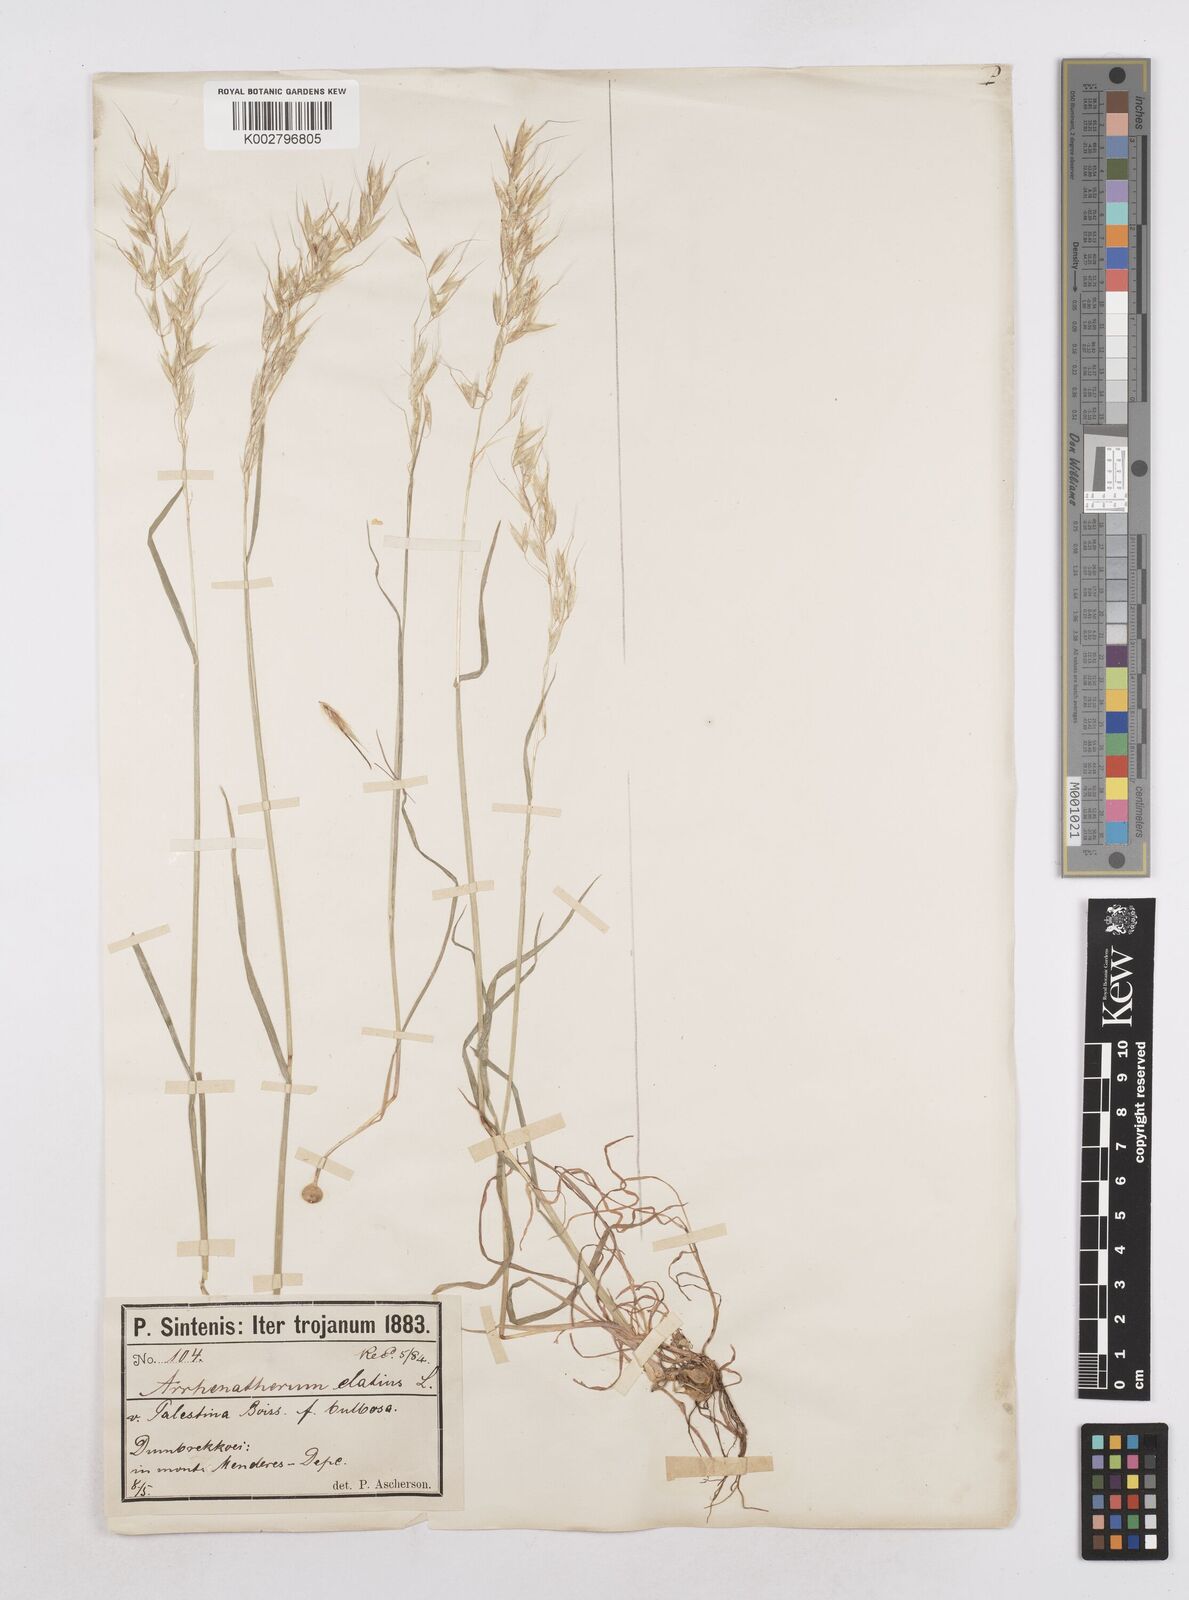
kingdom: Plantae
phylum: Tracheophyta
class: Liliopsida
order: Poales
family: Poaceae
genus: Arrhenatherum
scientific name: Arrhenatherum palaestinum
